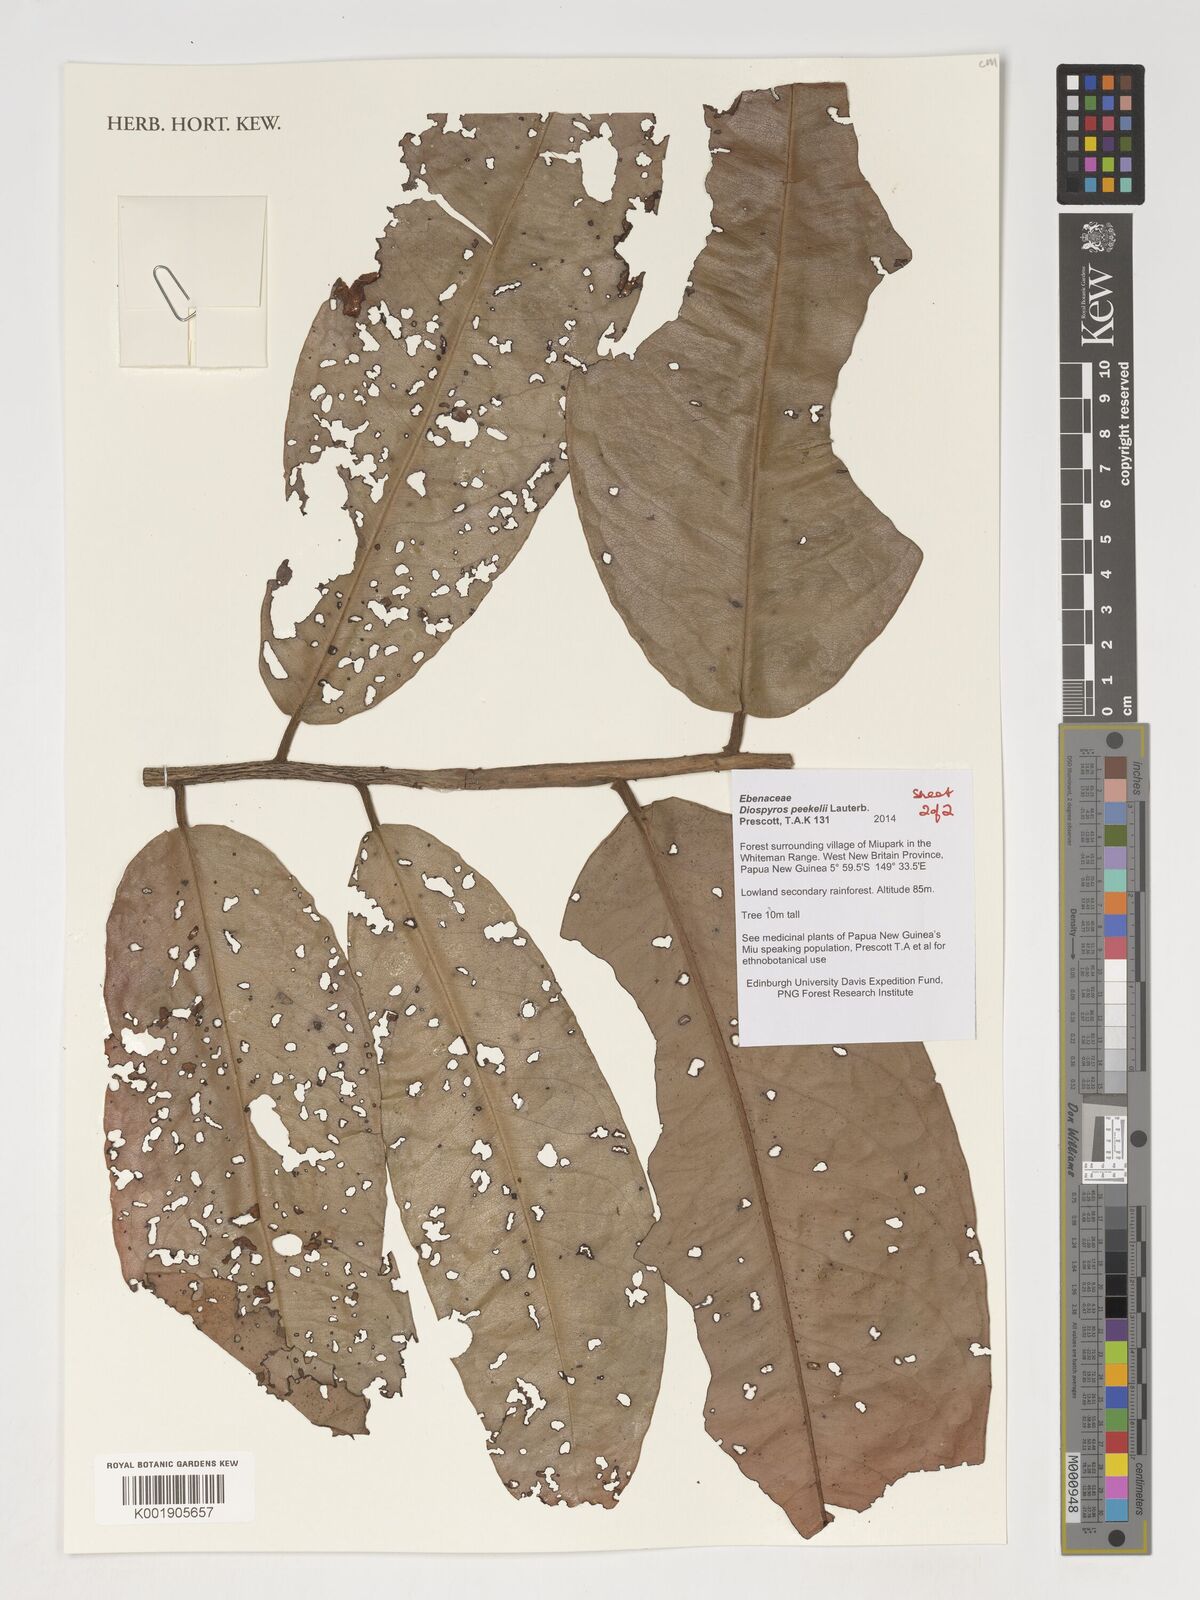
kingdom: Plantae
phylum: Tracheophyta
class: Magnoliopsida
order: Ericales
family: Ebenaceae
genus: Diospyros
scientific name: Diospyros peekelii
